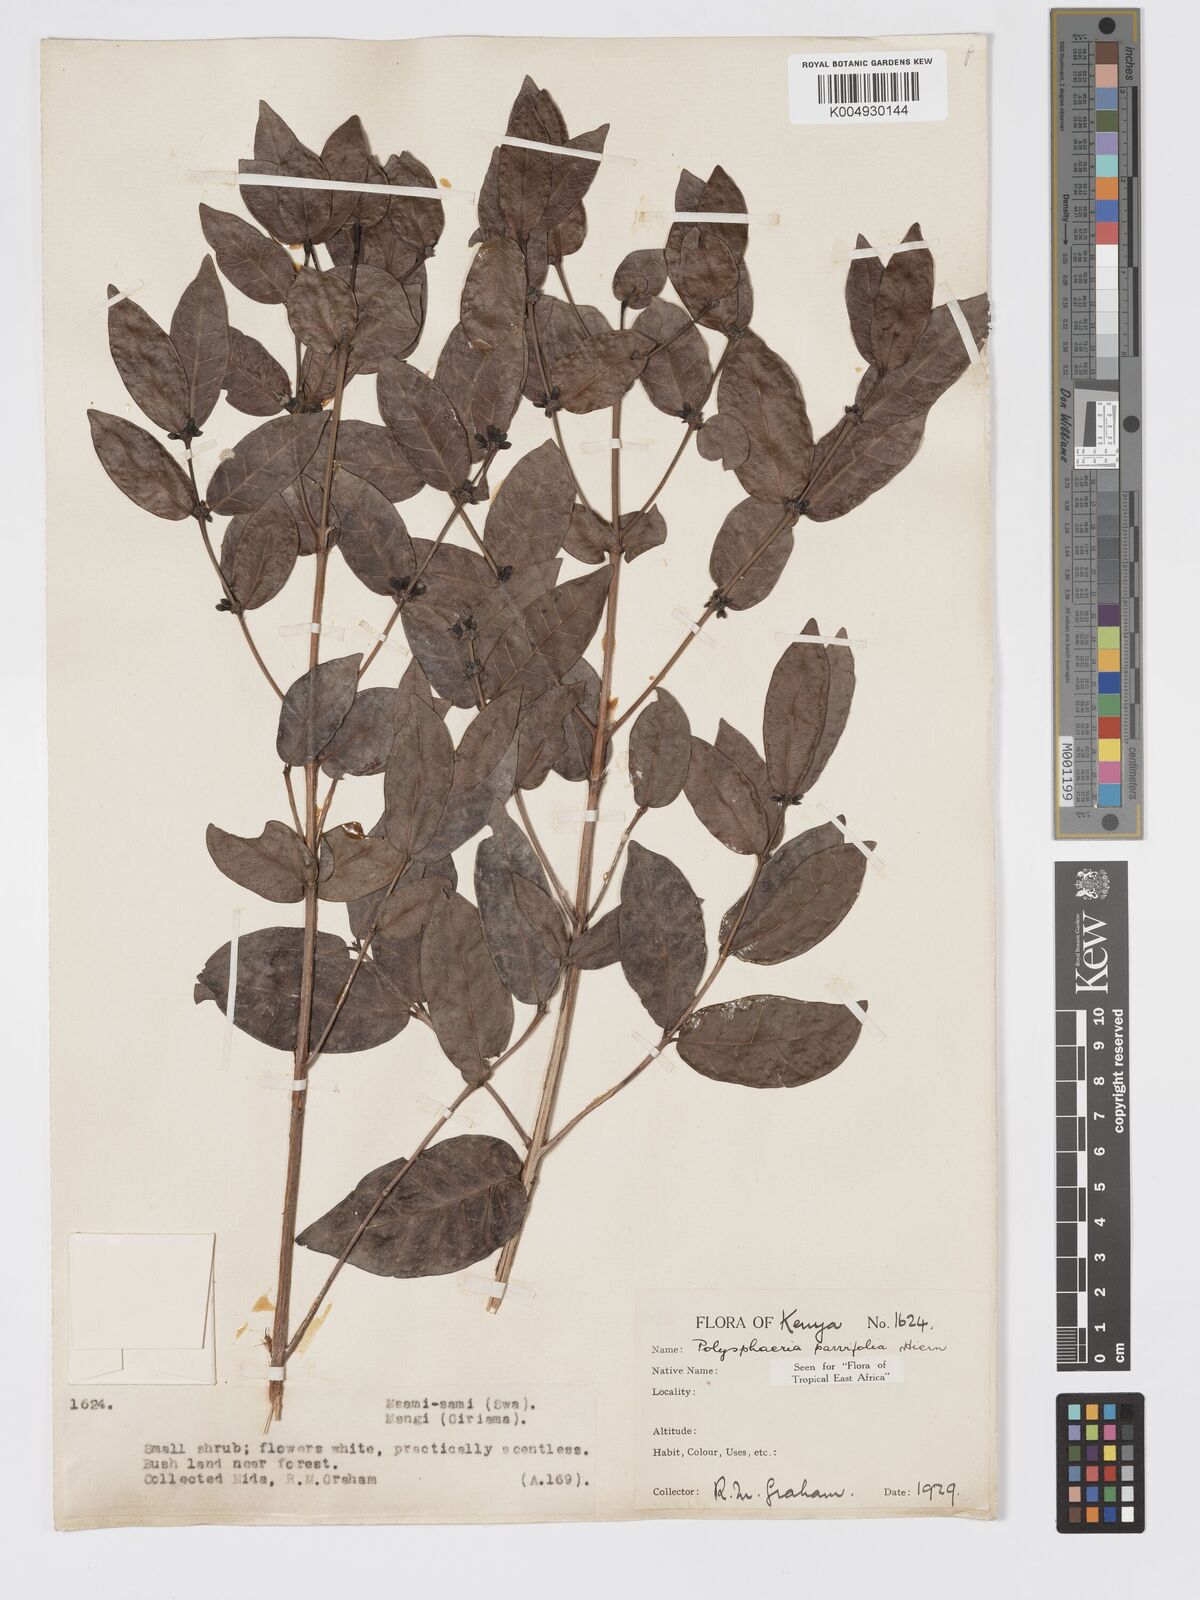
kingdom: Plantae
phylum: Tracheophyta
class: Magnoliopsida
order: Gentianales
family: Rubiaceae
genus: Polysphaeria
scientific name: Polysphaeria parvifolia
